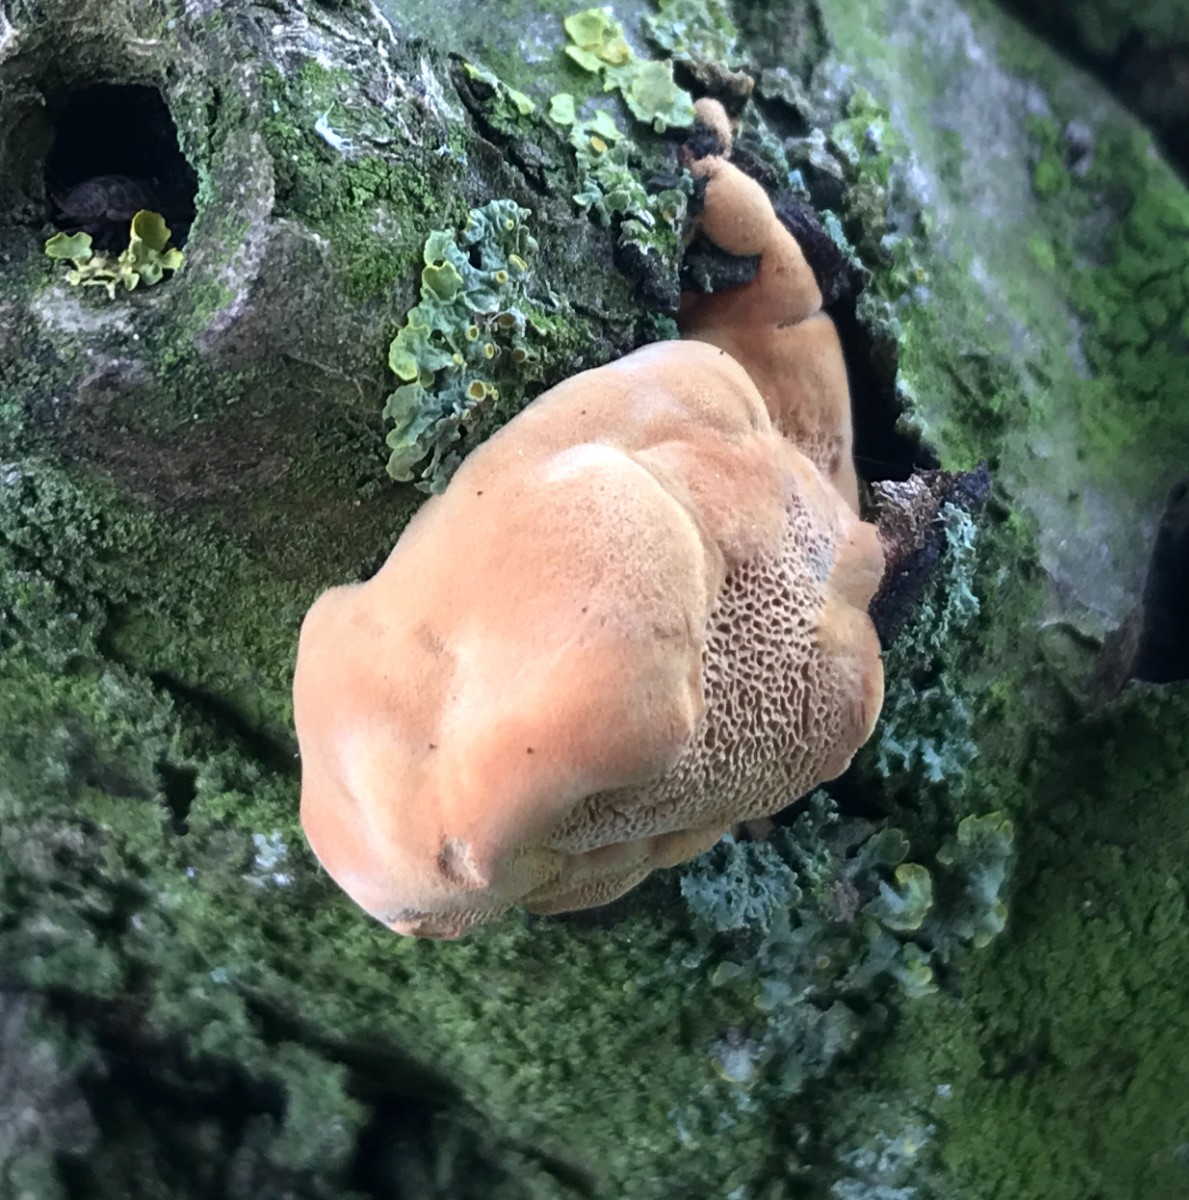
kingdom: Fungi
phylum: Basidiomycota
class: Agaricomycetes
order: Polyporales
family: Phanerochaetaceae
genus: Hapalopilus
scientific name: Hapalopilus rutilans
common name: rødlig okkerporesvamp
